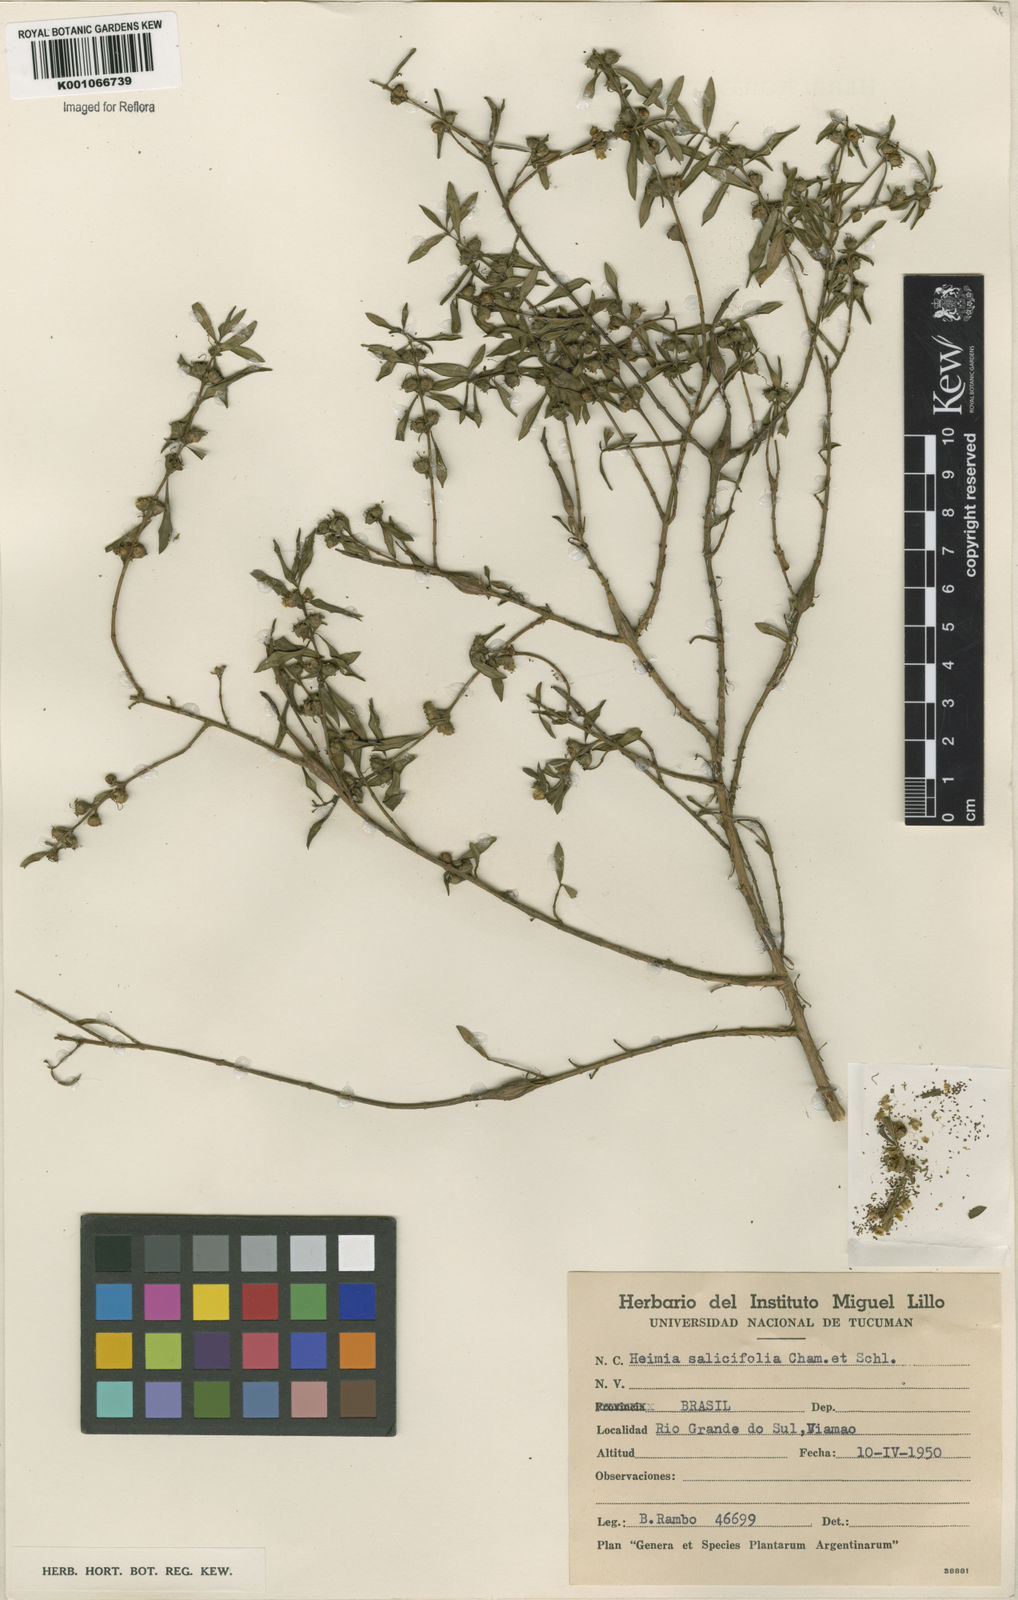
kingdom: Plantae
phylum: Tracheophyta
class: Magnoliopsida
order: Myrtales
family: Lythraceae
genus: Heimia
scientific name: Heimia salicifolia
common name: Willow-leaf heimia
